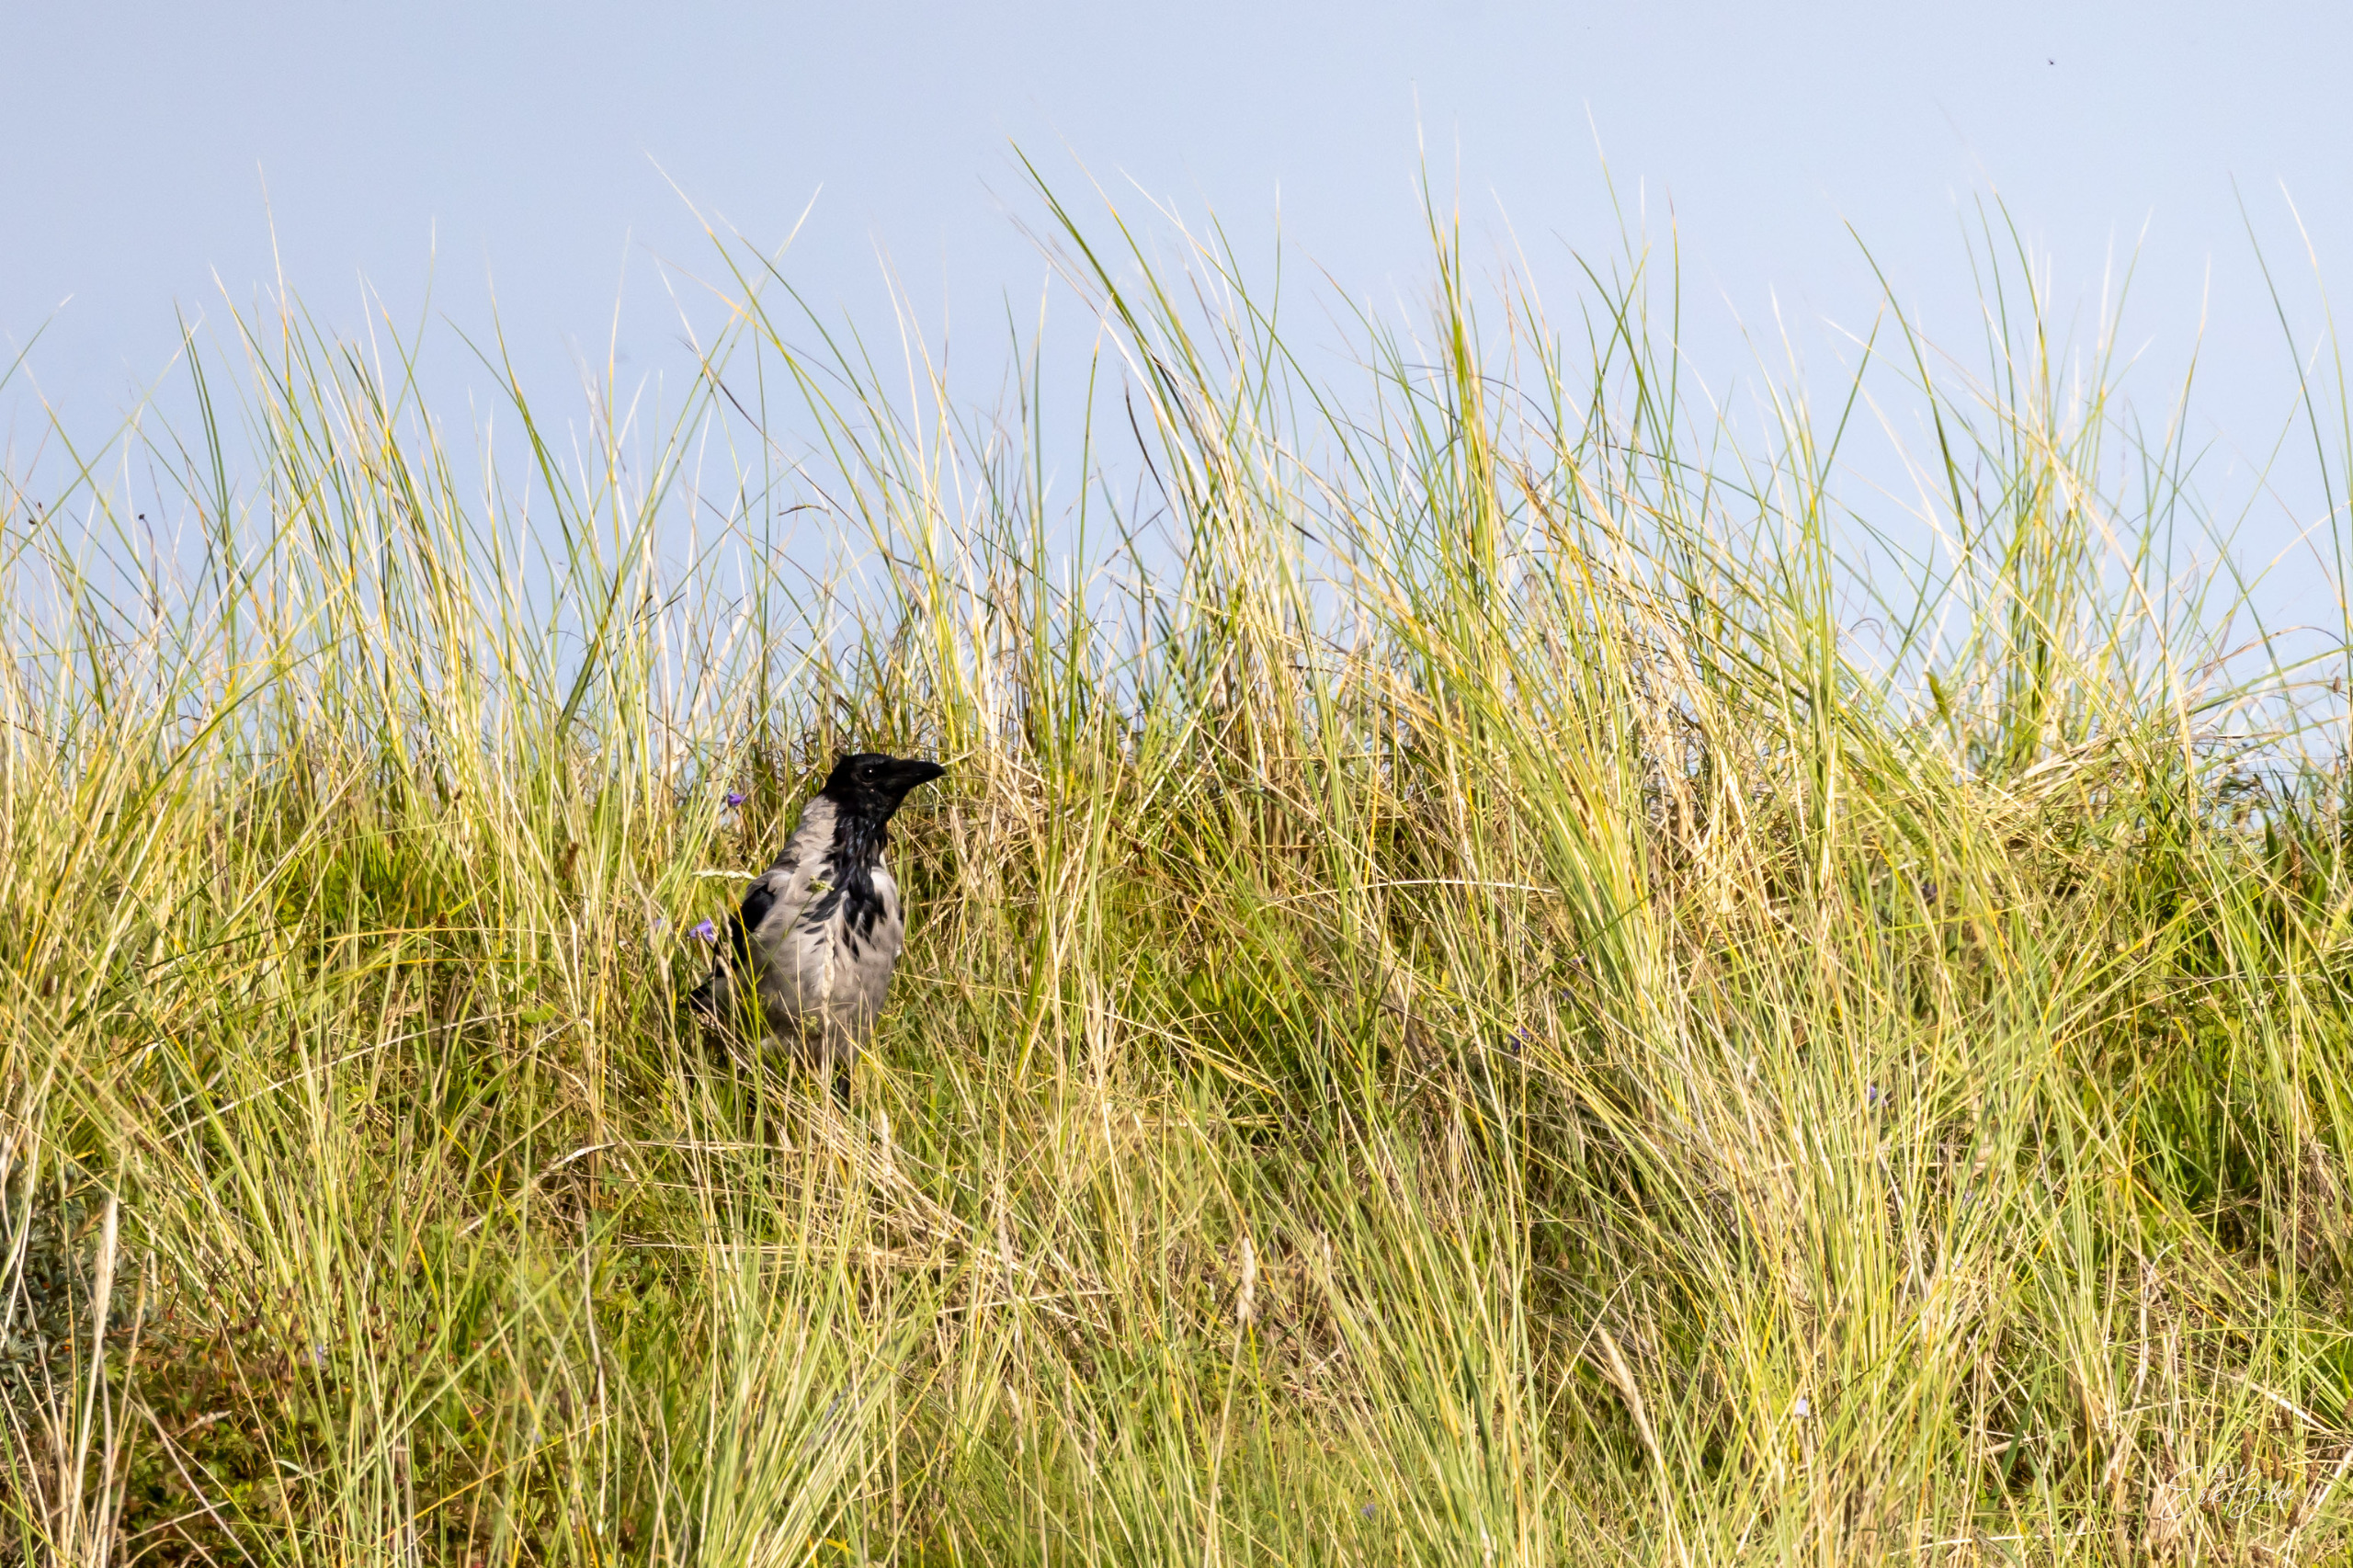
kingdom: Animalia
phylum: Chordata
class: Aves
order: Passeriformes
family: Corvidae
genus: Corvus
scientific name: Corvus cornix
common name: Gråkrage
